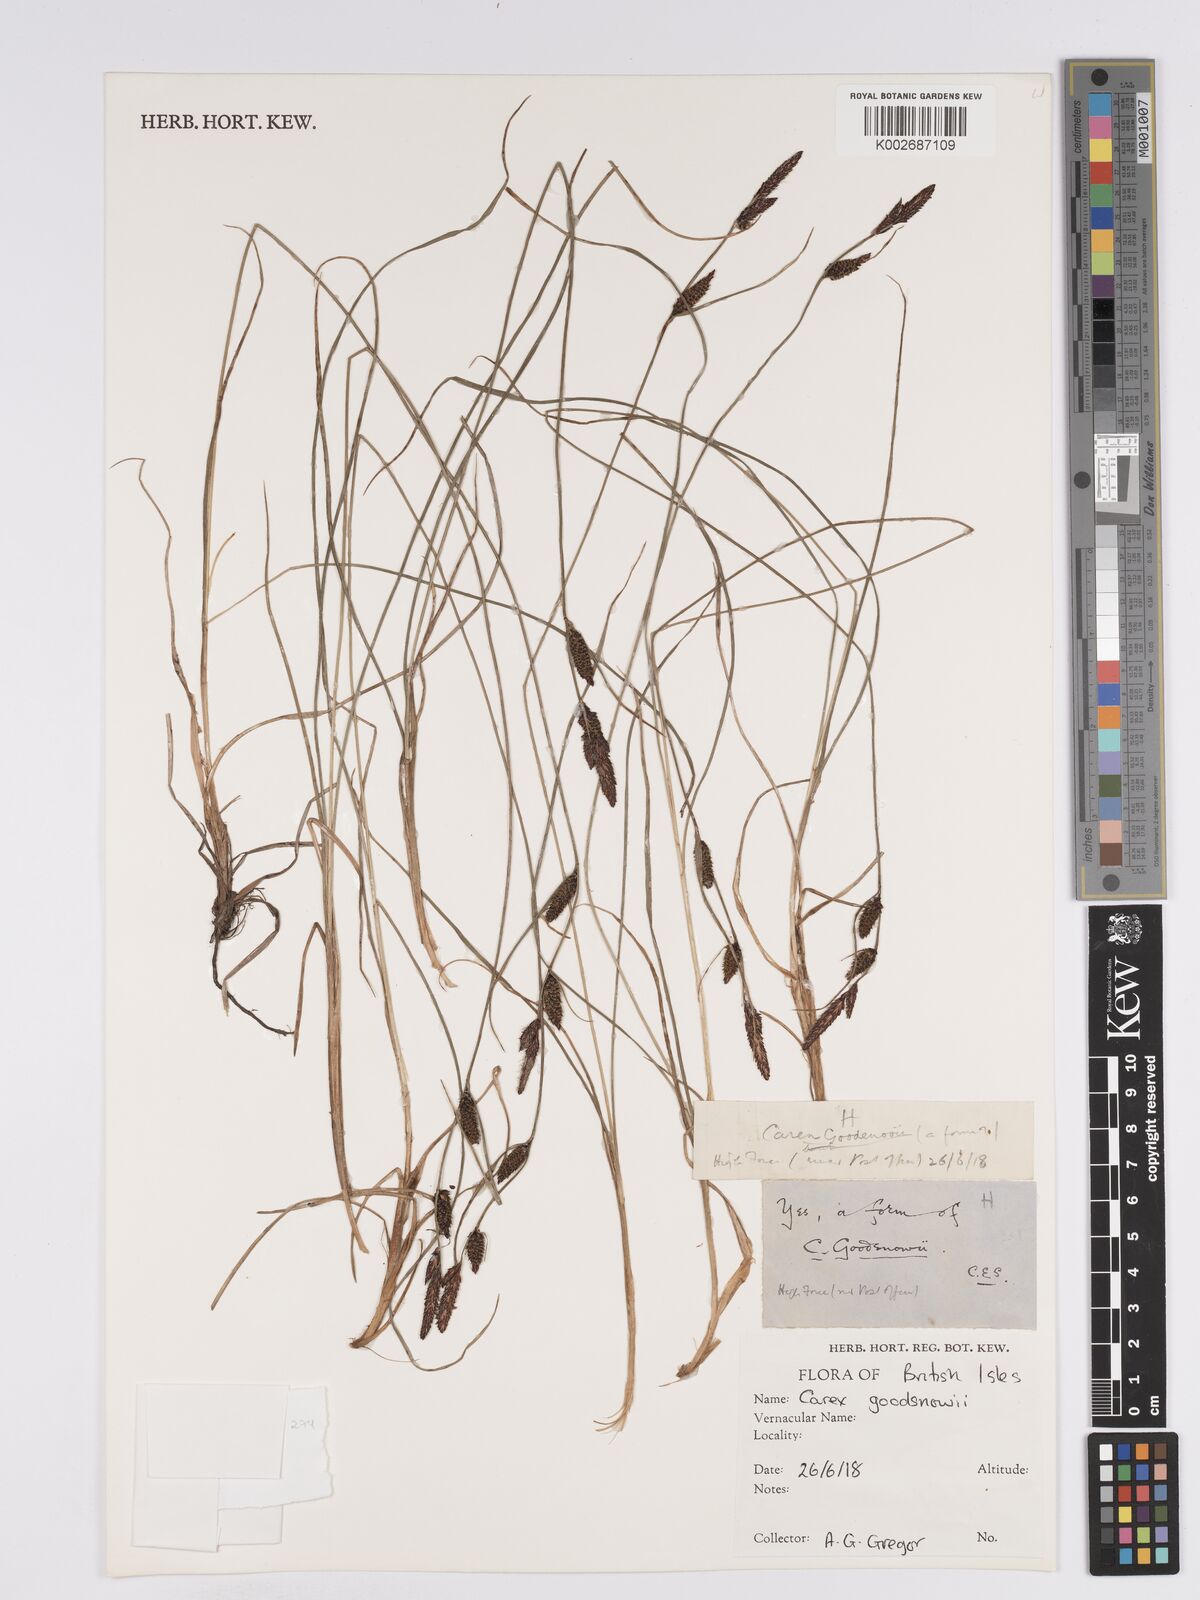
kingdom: Plantae
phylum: Tracheophyta
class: Liliopsida
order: Poales
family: Cyperaceae
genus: Carex
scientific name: Carex nigra
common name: Common sedge
